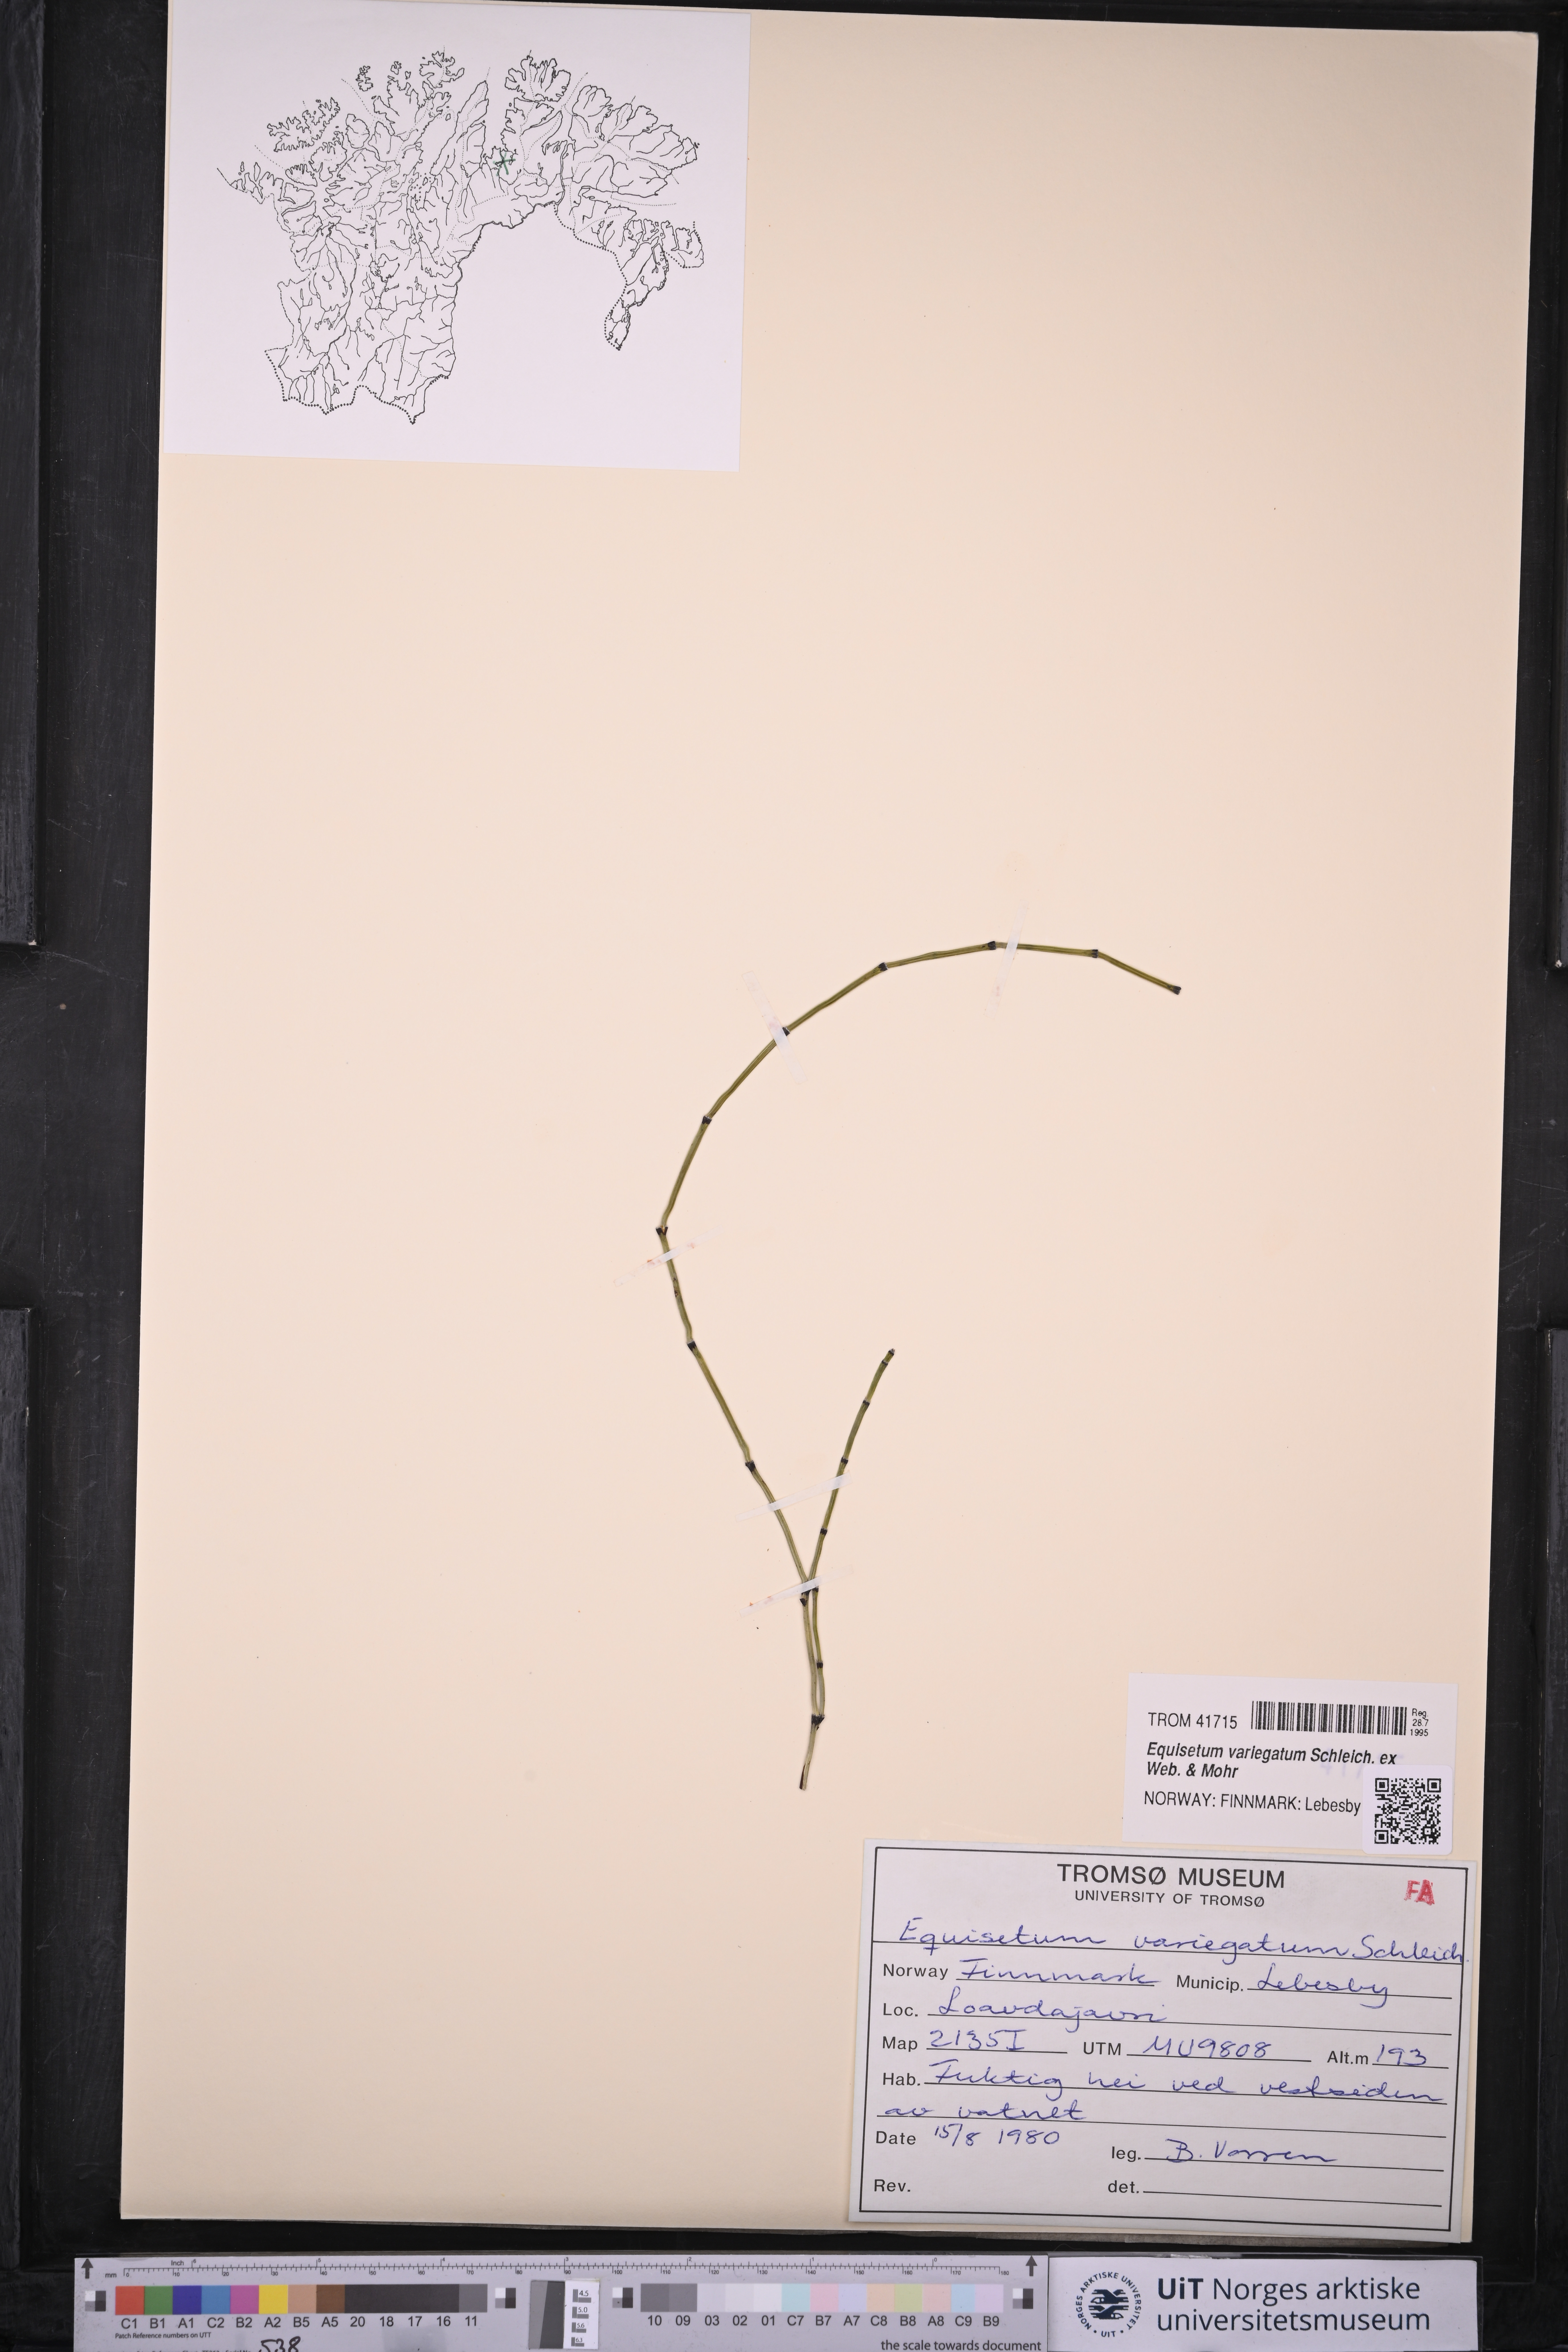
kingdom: Plantae
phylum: Tracheophyta
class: Polypodiopsida
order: Equisetales
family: Equisetaceae
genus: Equisetum
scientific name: Equisetum variegatum
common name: Variegated horsetail
